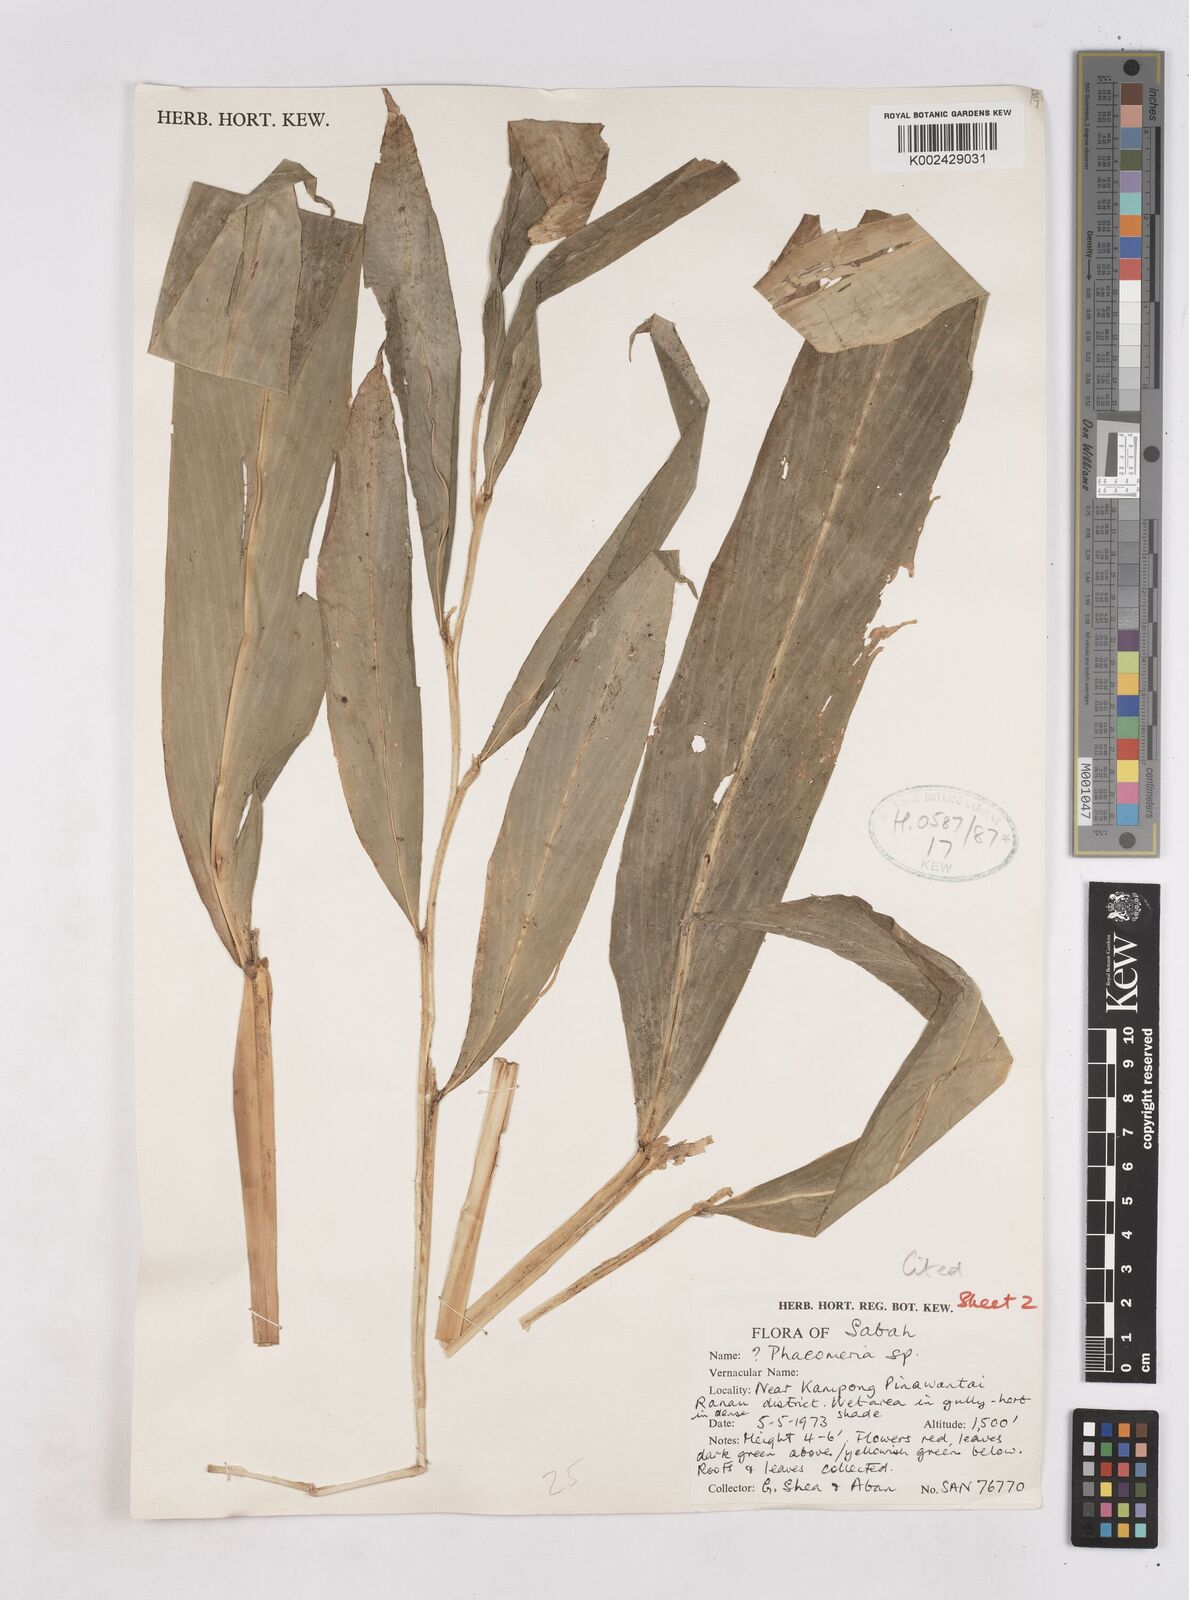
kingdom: Plantae
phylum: Tracheophyta
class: Liliopsida
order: Zingiberales
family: Zingiberaceae
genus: Zingiber
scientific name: Zingiber pseudopungens
